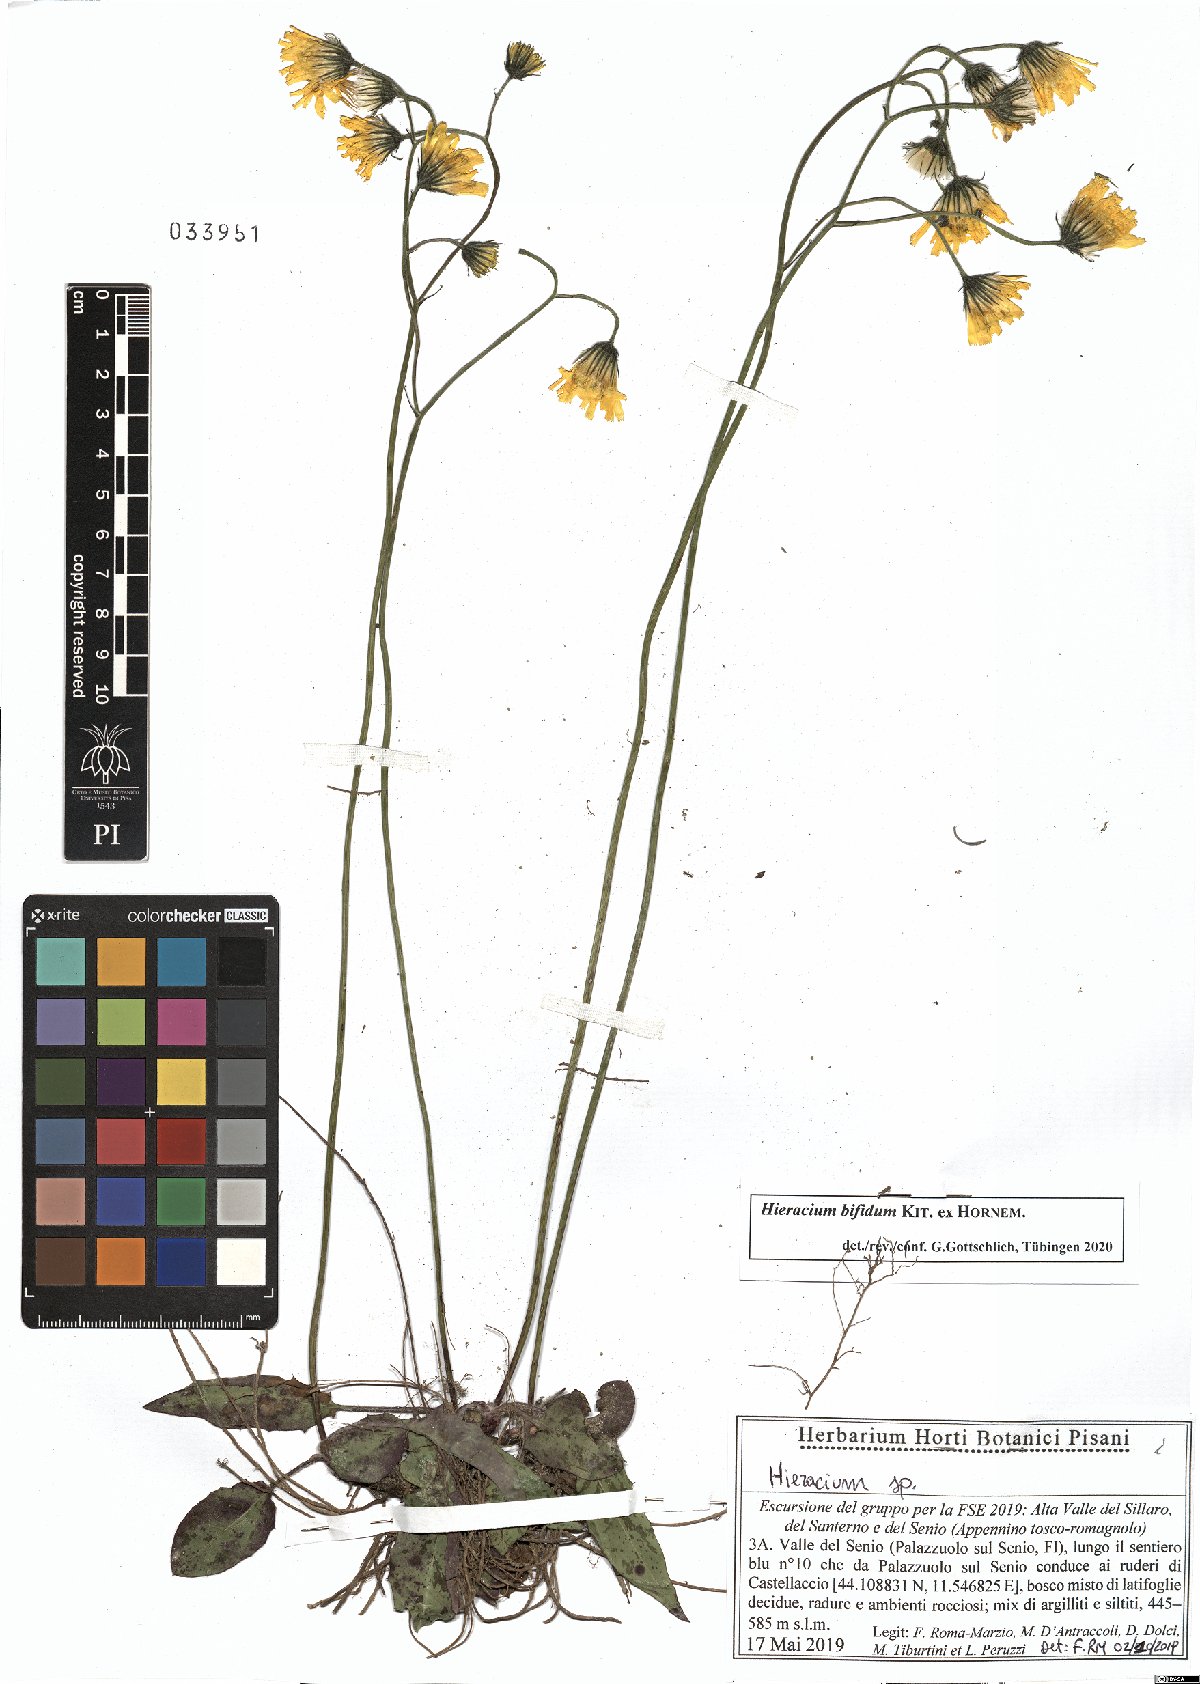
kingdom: Plantae
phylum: Tracheophyta
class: Magnoliopsida
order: Asterales
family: Asteraceae
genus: Hieracium
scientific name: Hieracium bifidum
